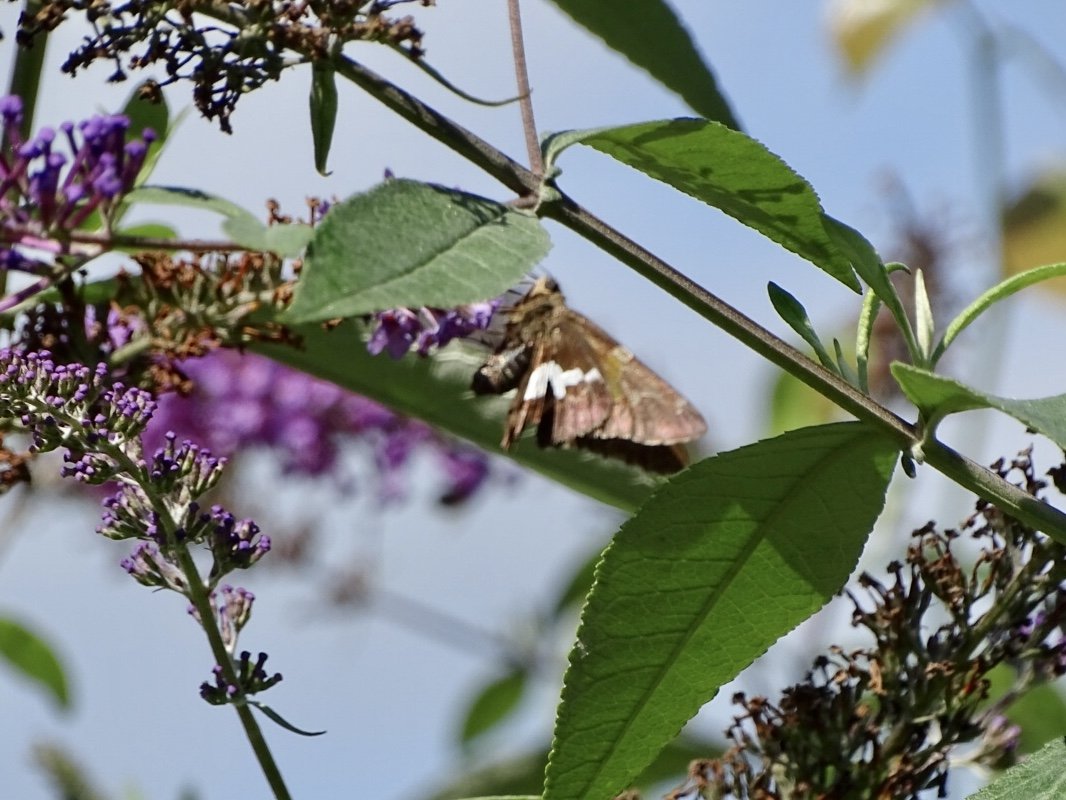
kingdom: Animalia
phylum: Arthropoda
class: Insecta
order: Lepidoptera
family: Hesperiidae
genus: Epargyreus
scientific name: Epargyreus clarus
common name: Silver-spotted Skipper
